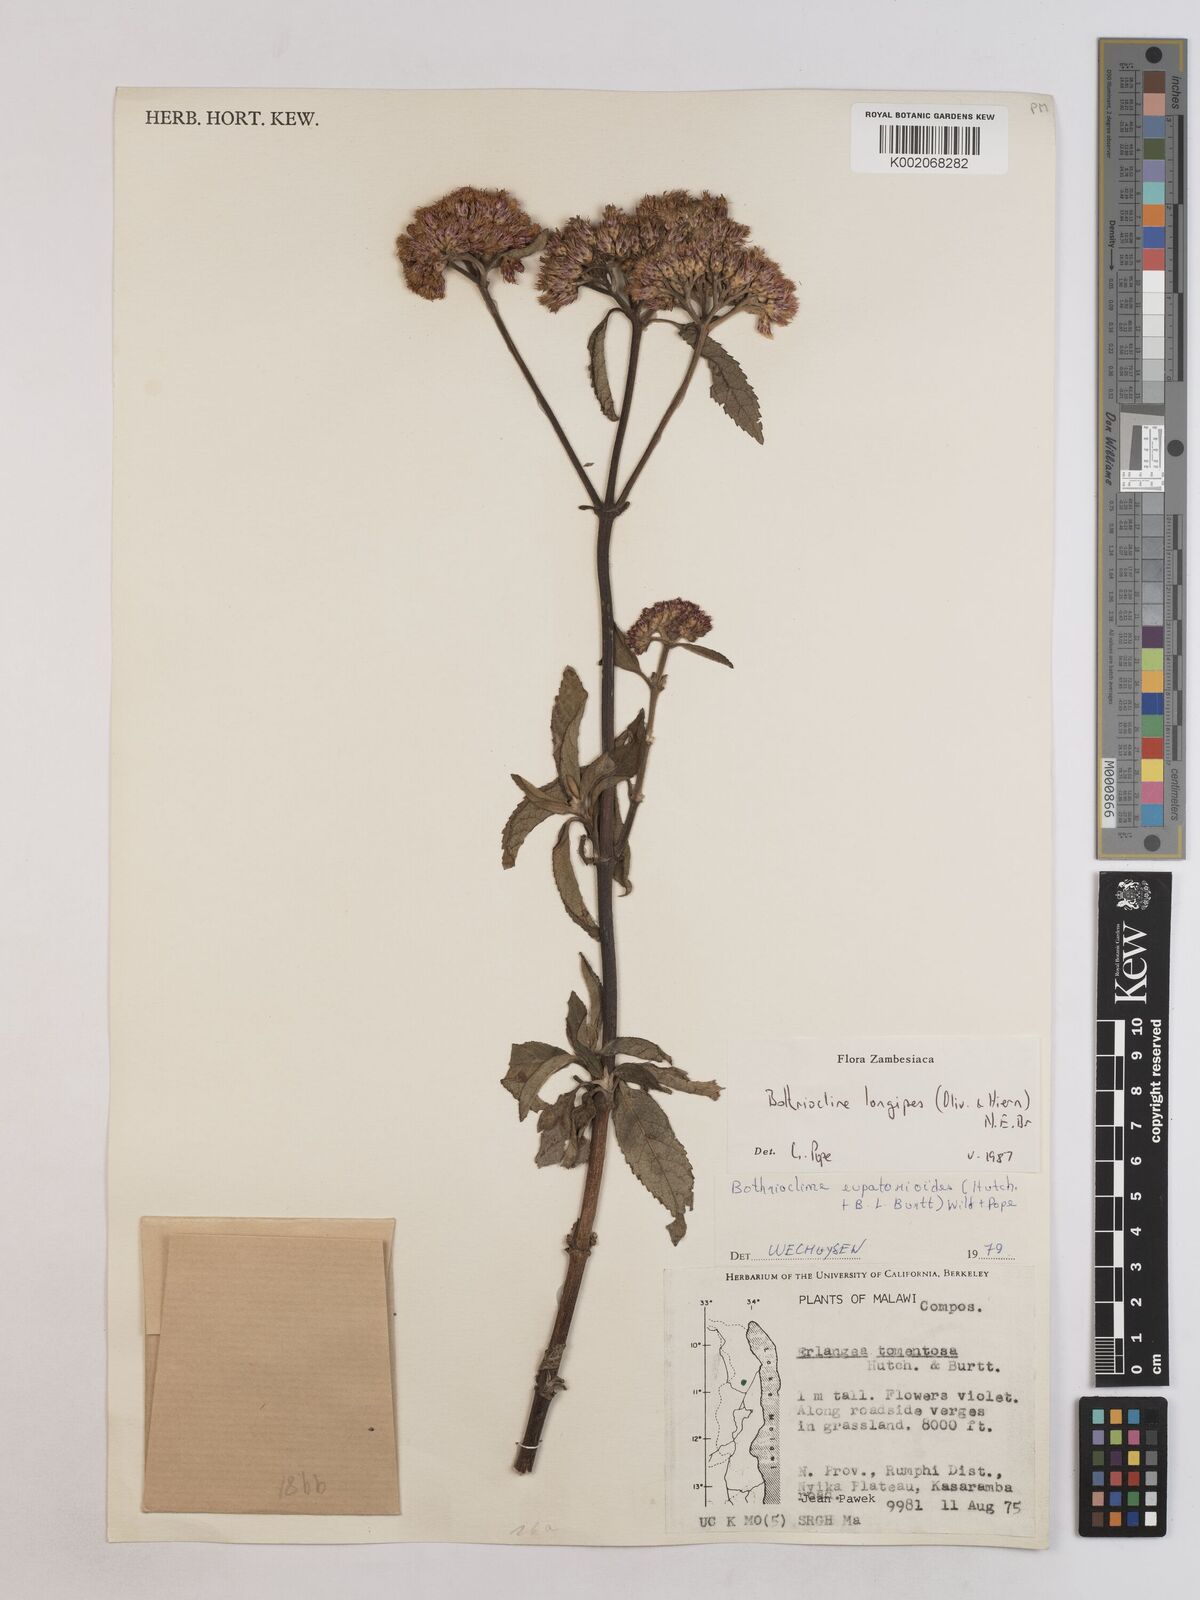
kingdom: Plantae
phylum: Tracheophyta
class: Magnoliopsida
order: Asterales
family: Asteraceae
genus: Bothriocline
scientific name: Bothriocline longipes
